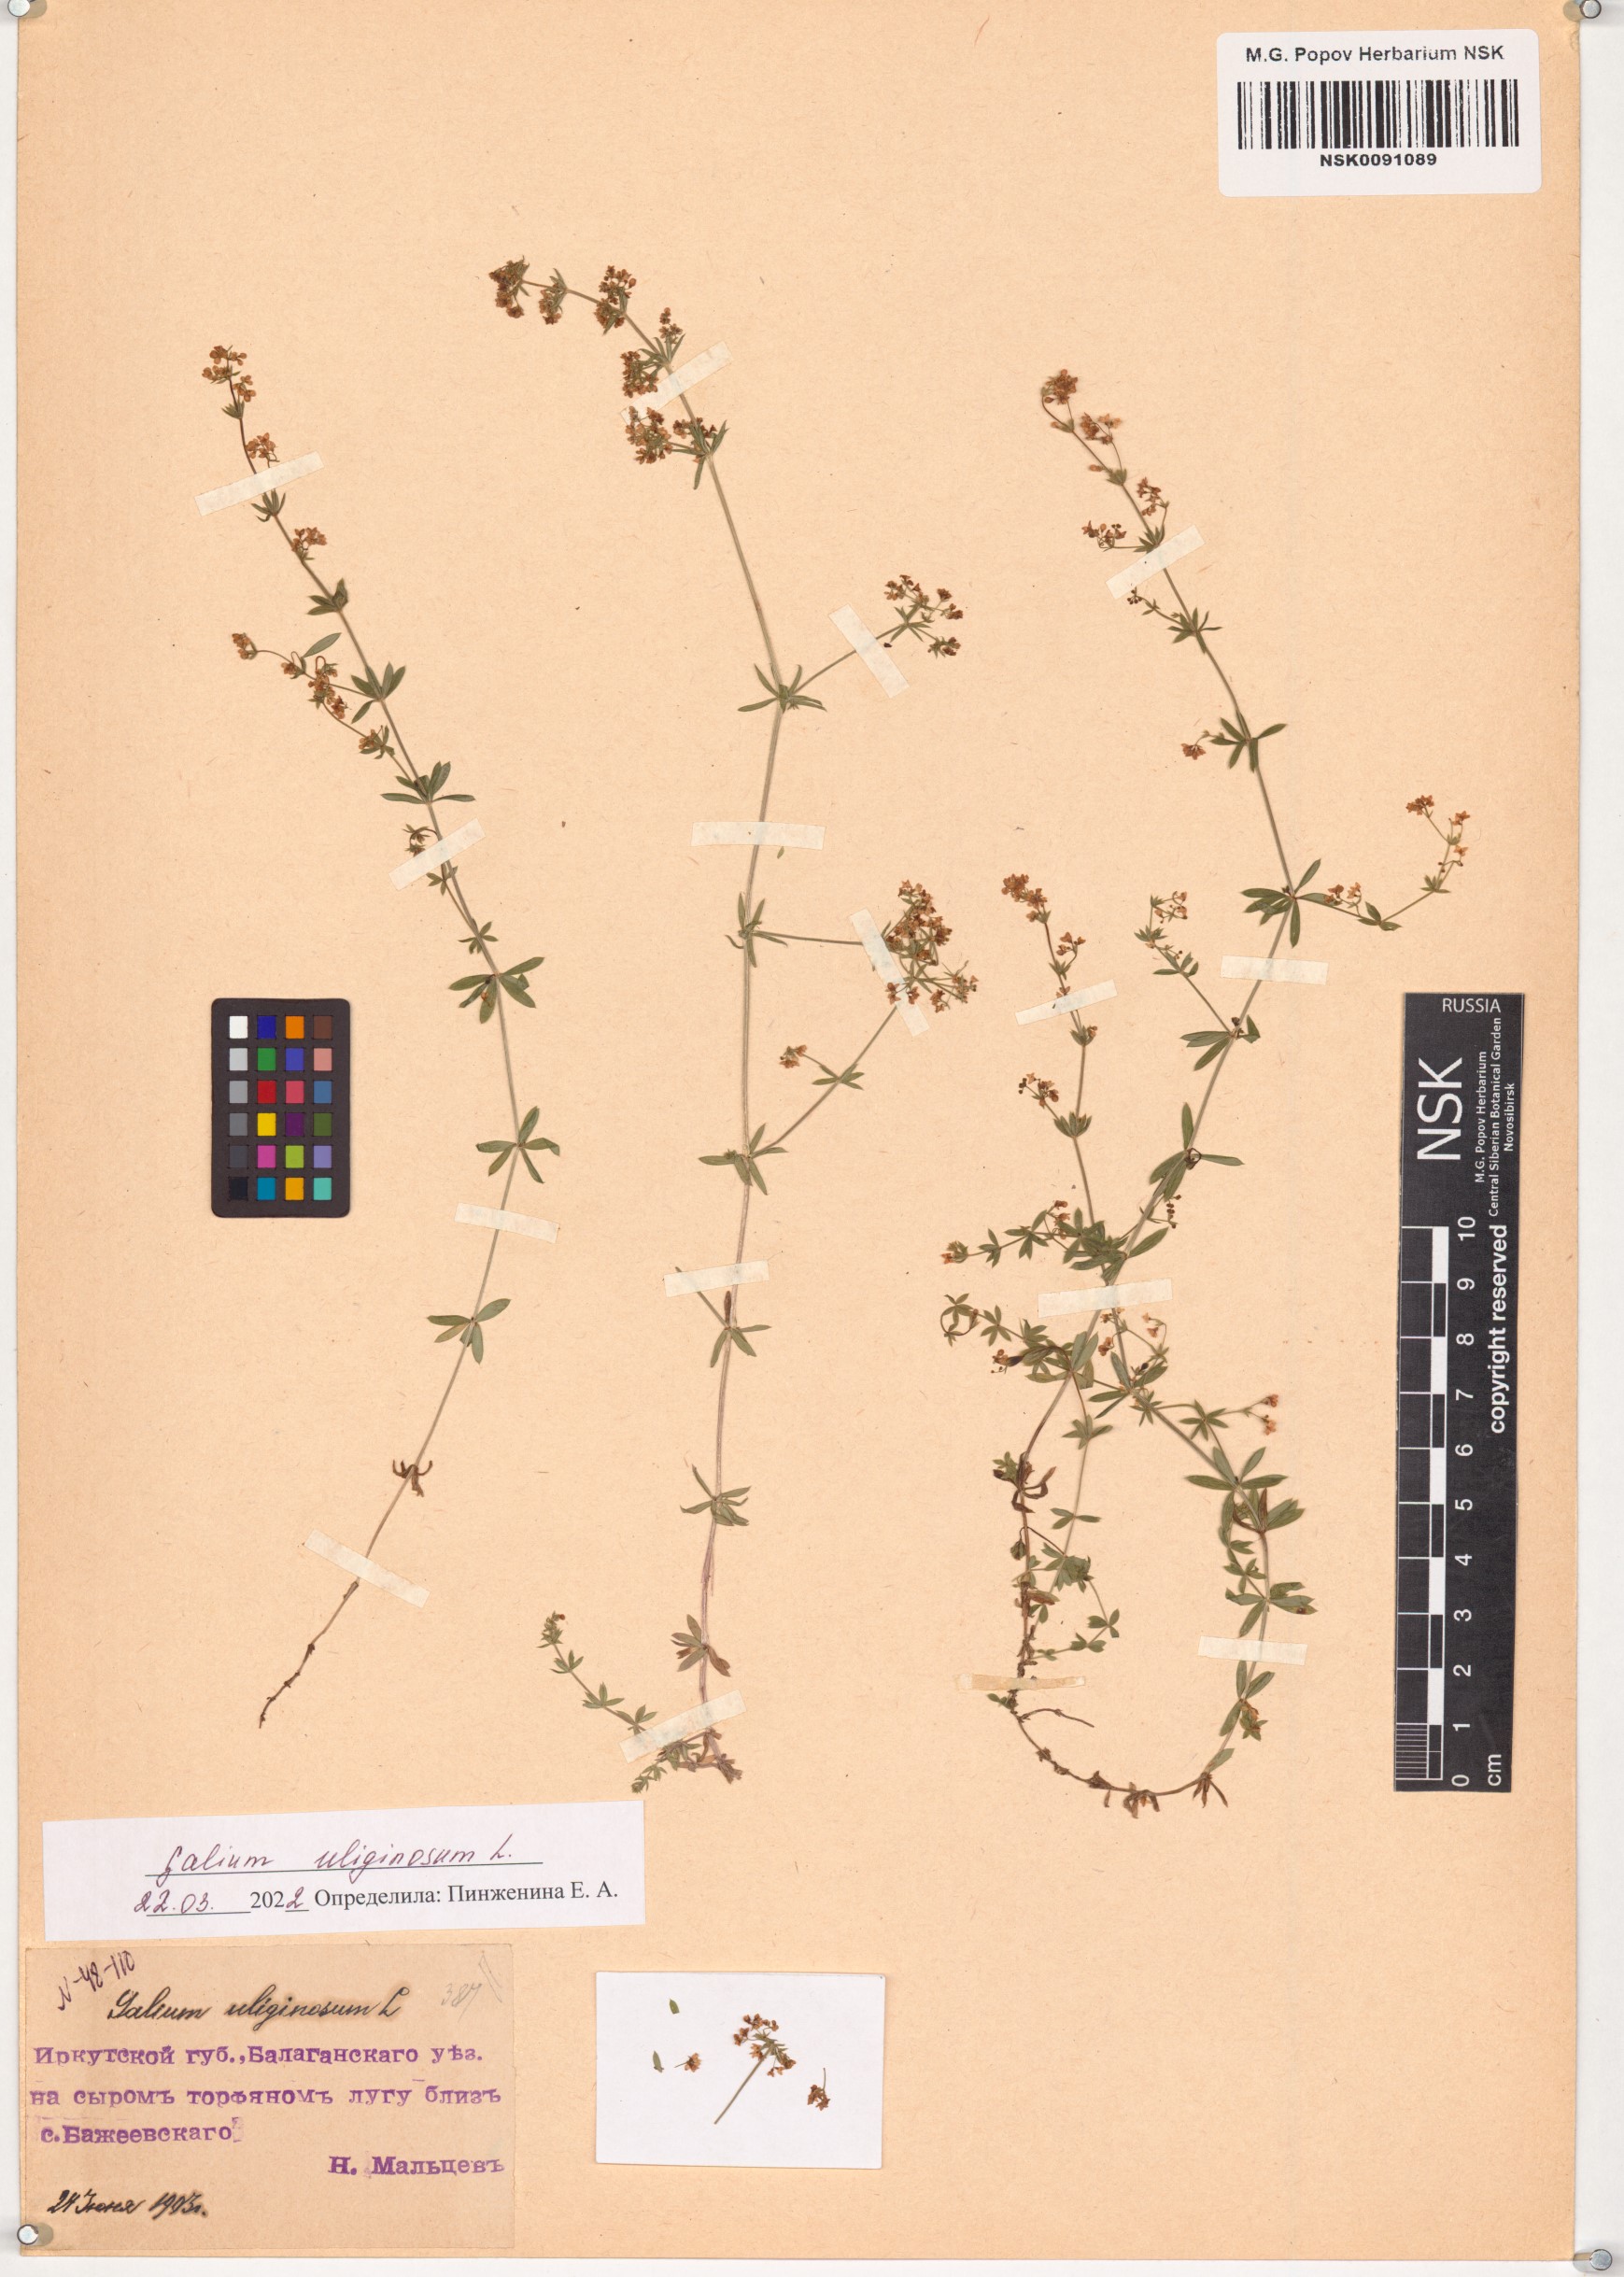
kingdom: Plantae
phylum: Tracheophyta
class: Magnoliopsida
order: Gentianales
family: Rubiaceae
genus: Galium
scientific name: Galium uliginosum
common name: Fen bedstraw
